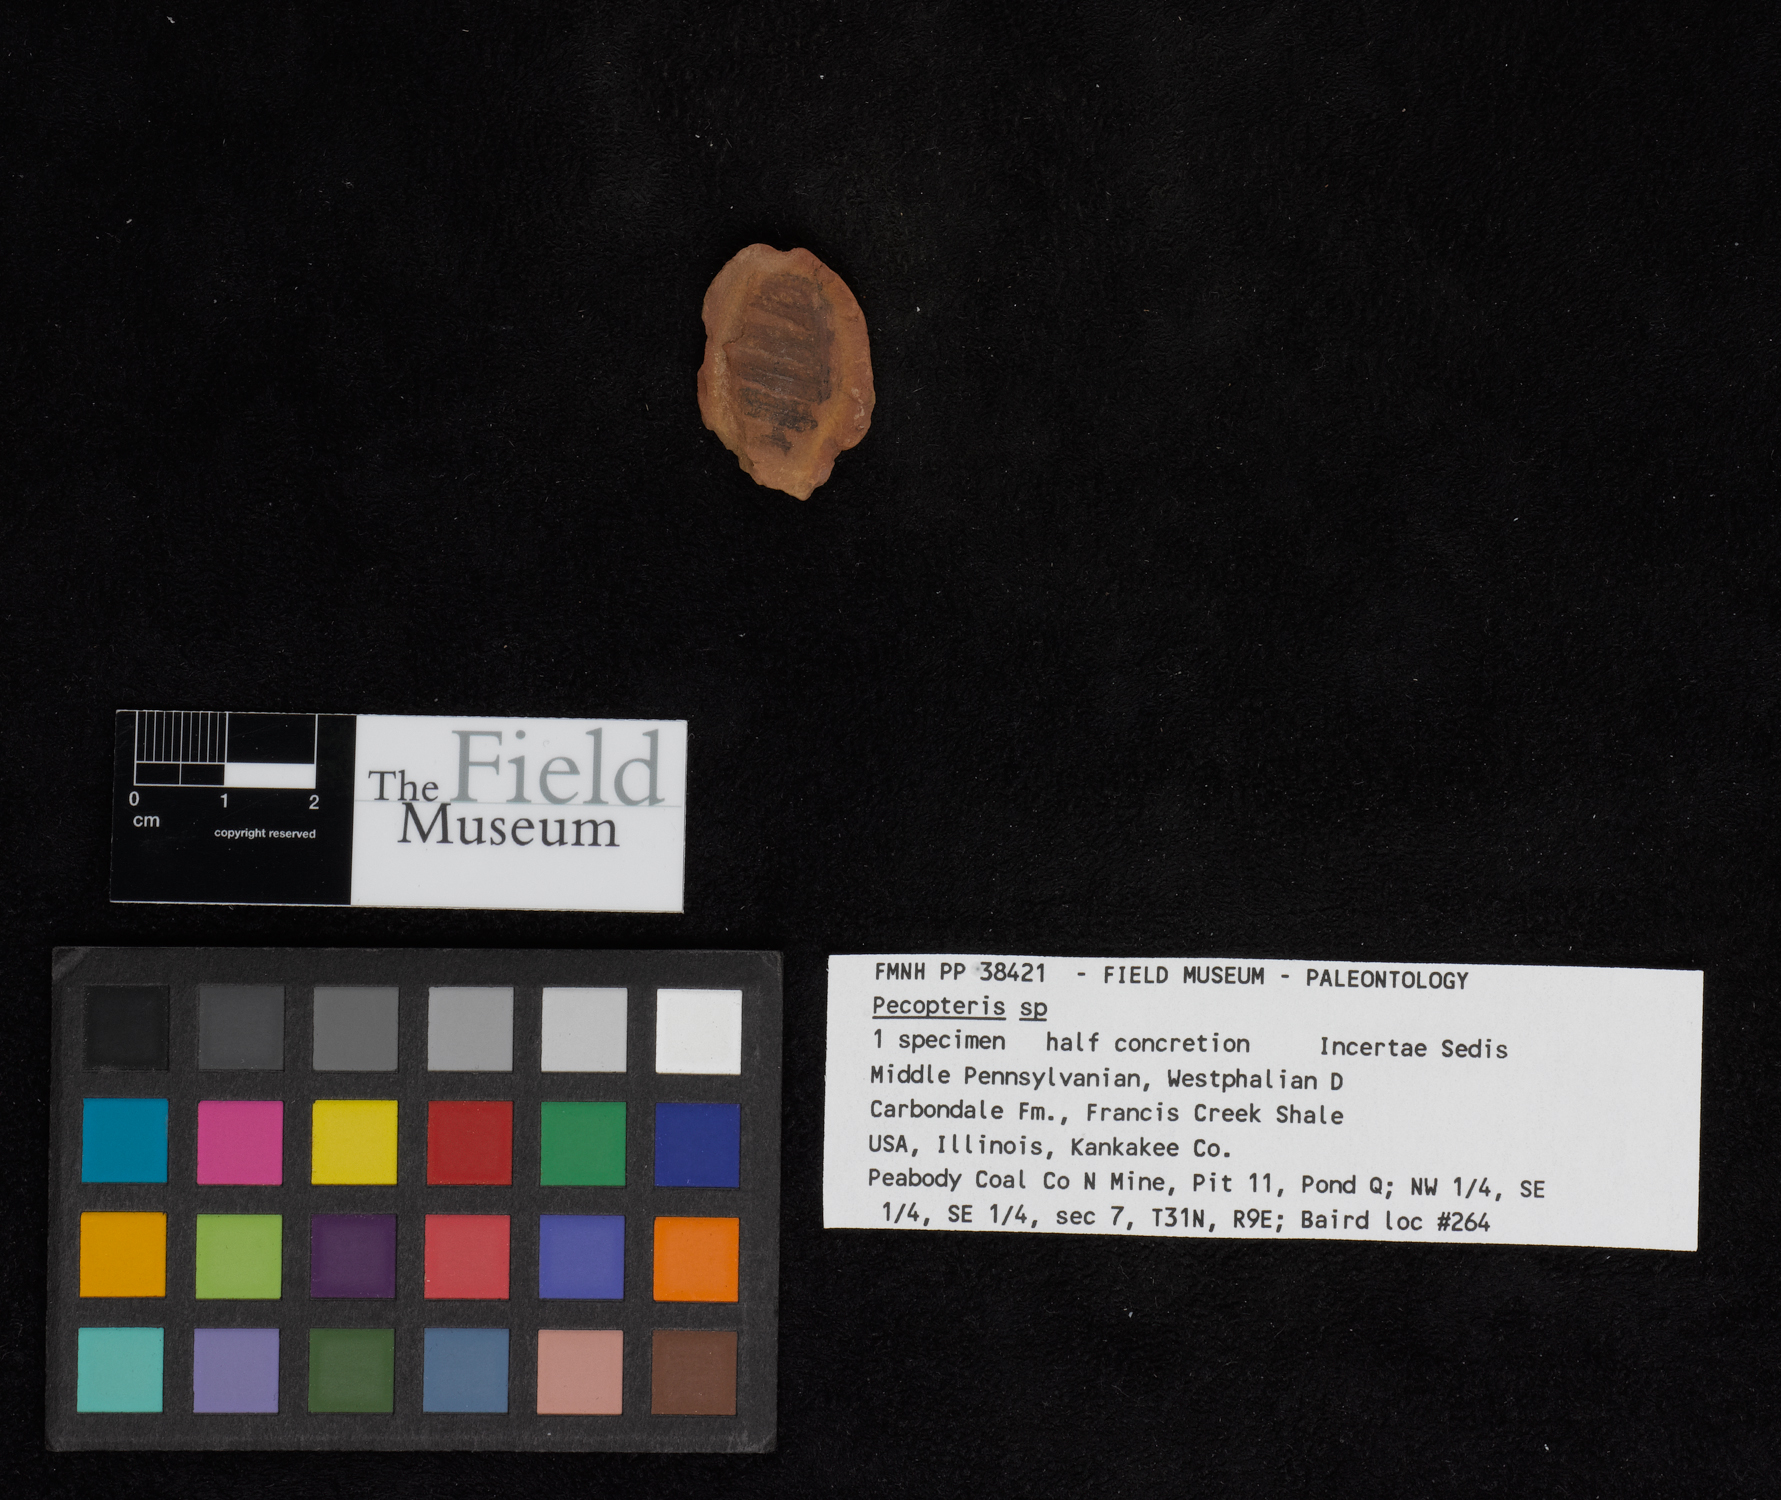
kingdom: Plantae
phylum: Tracheophyta
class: Polypodiopsida
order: Marattiales
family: Asterothecaceae
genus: Pecopteris
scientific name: Pecopteris
